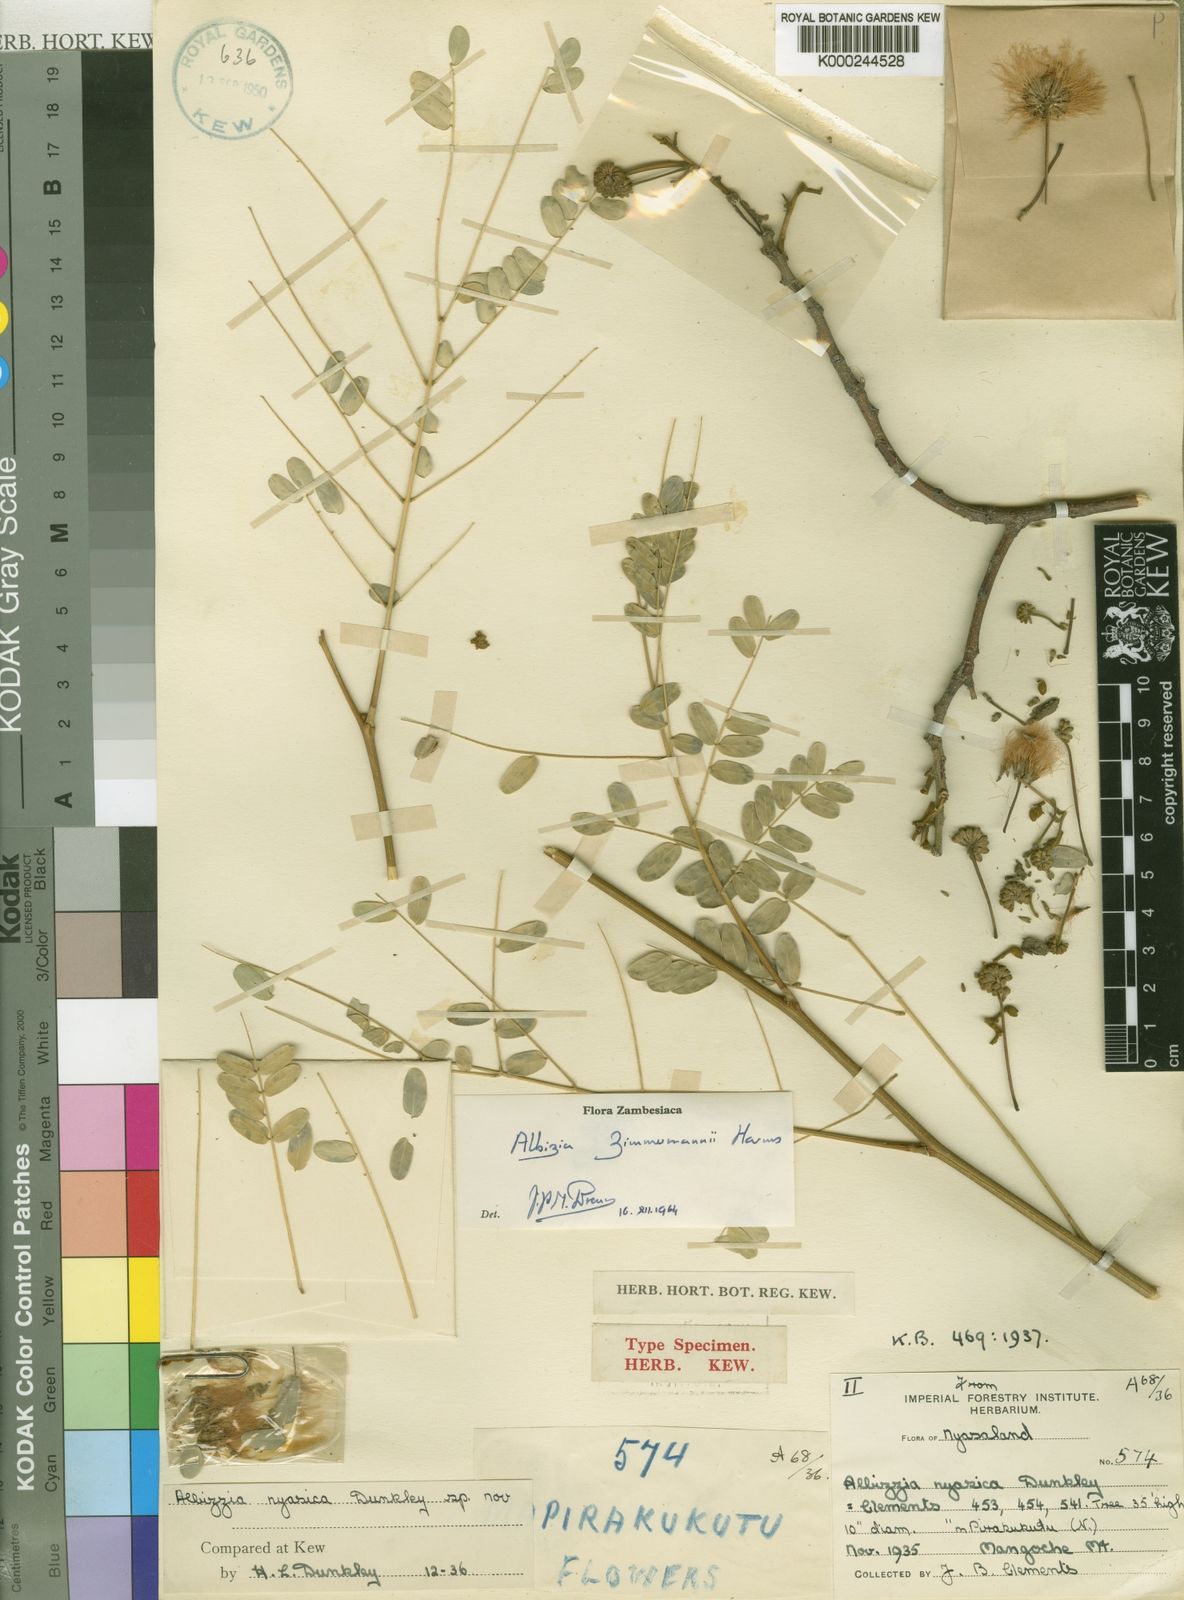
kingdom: Plantae
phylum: Tracheophyta
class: Magnoliopsida
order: Fabales
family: Fabaceae
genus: Albizia
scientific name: Albizia zimmermannii
